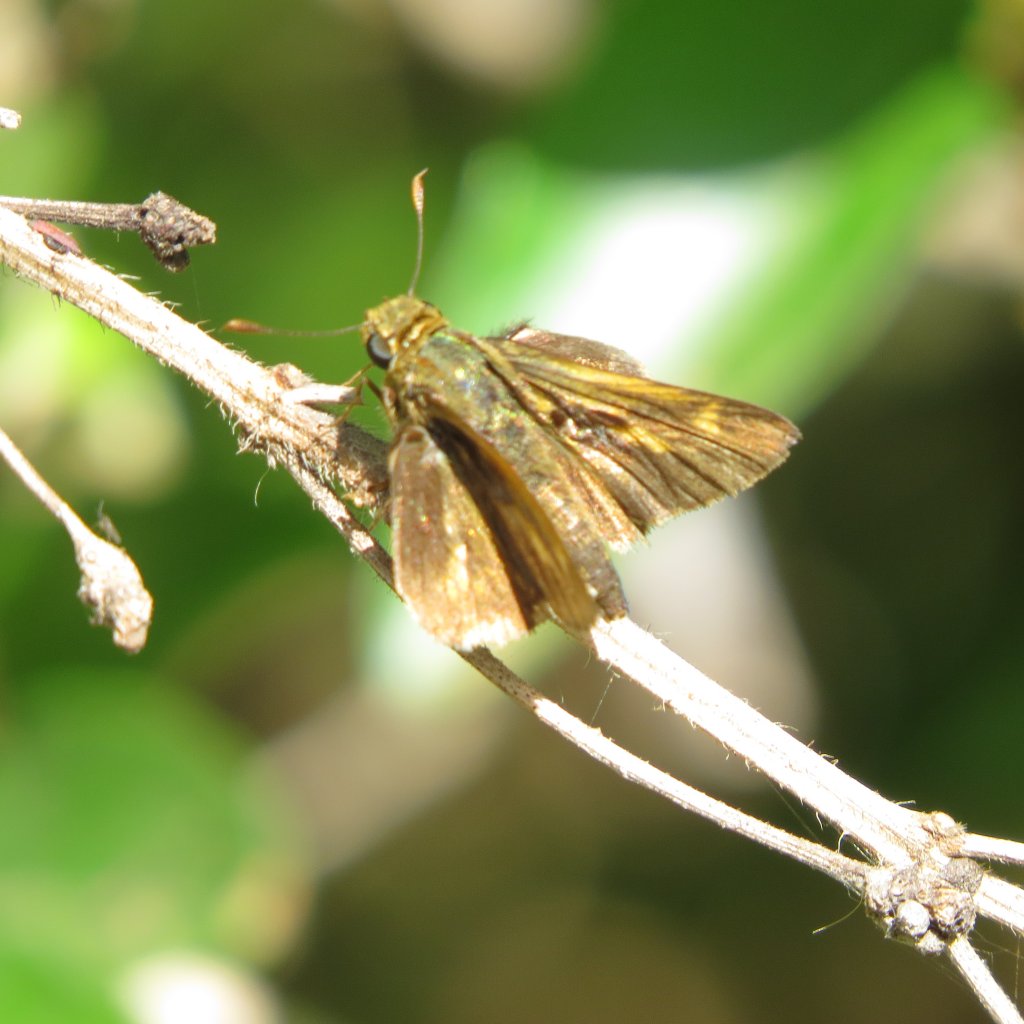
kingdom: Animalia
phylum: Arthropoda
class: Insecta
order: Lepidoptera
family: Hesperiidae
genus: Nastra
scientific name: Nastra julia
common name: Julia's Skipper
